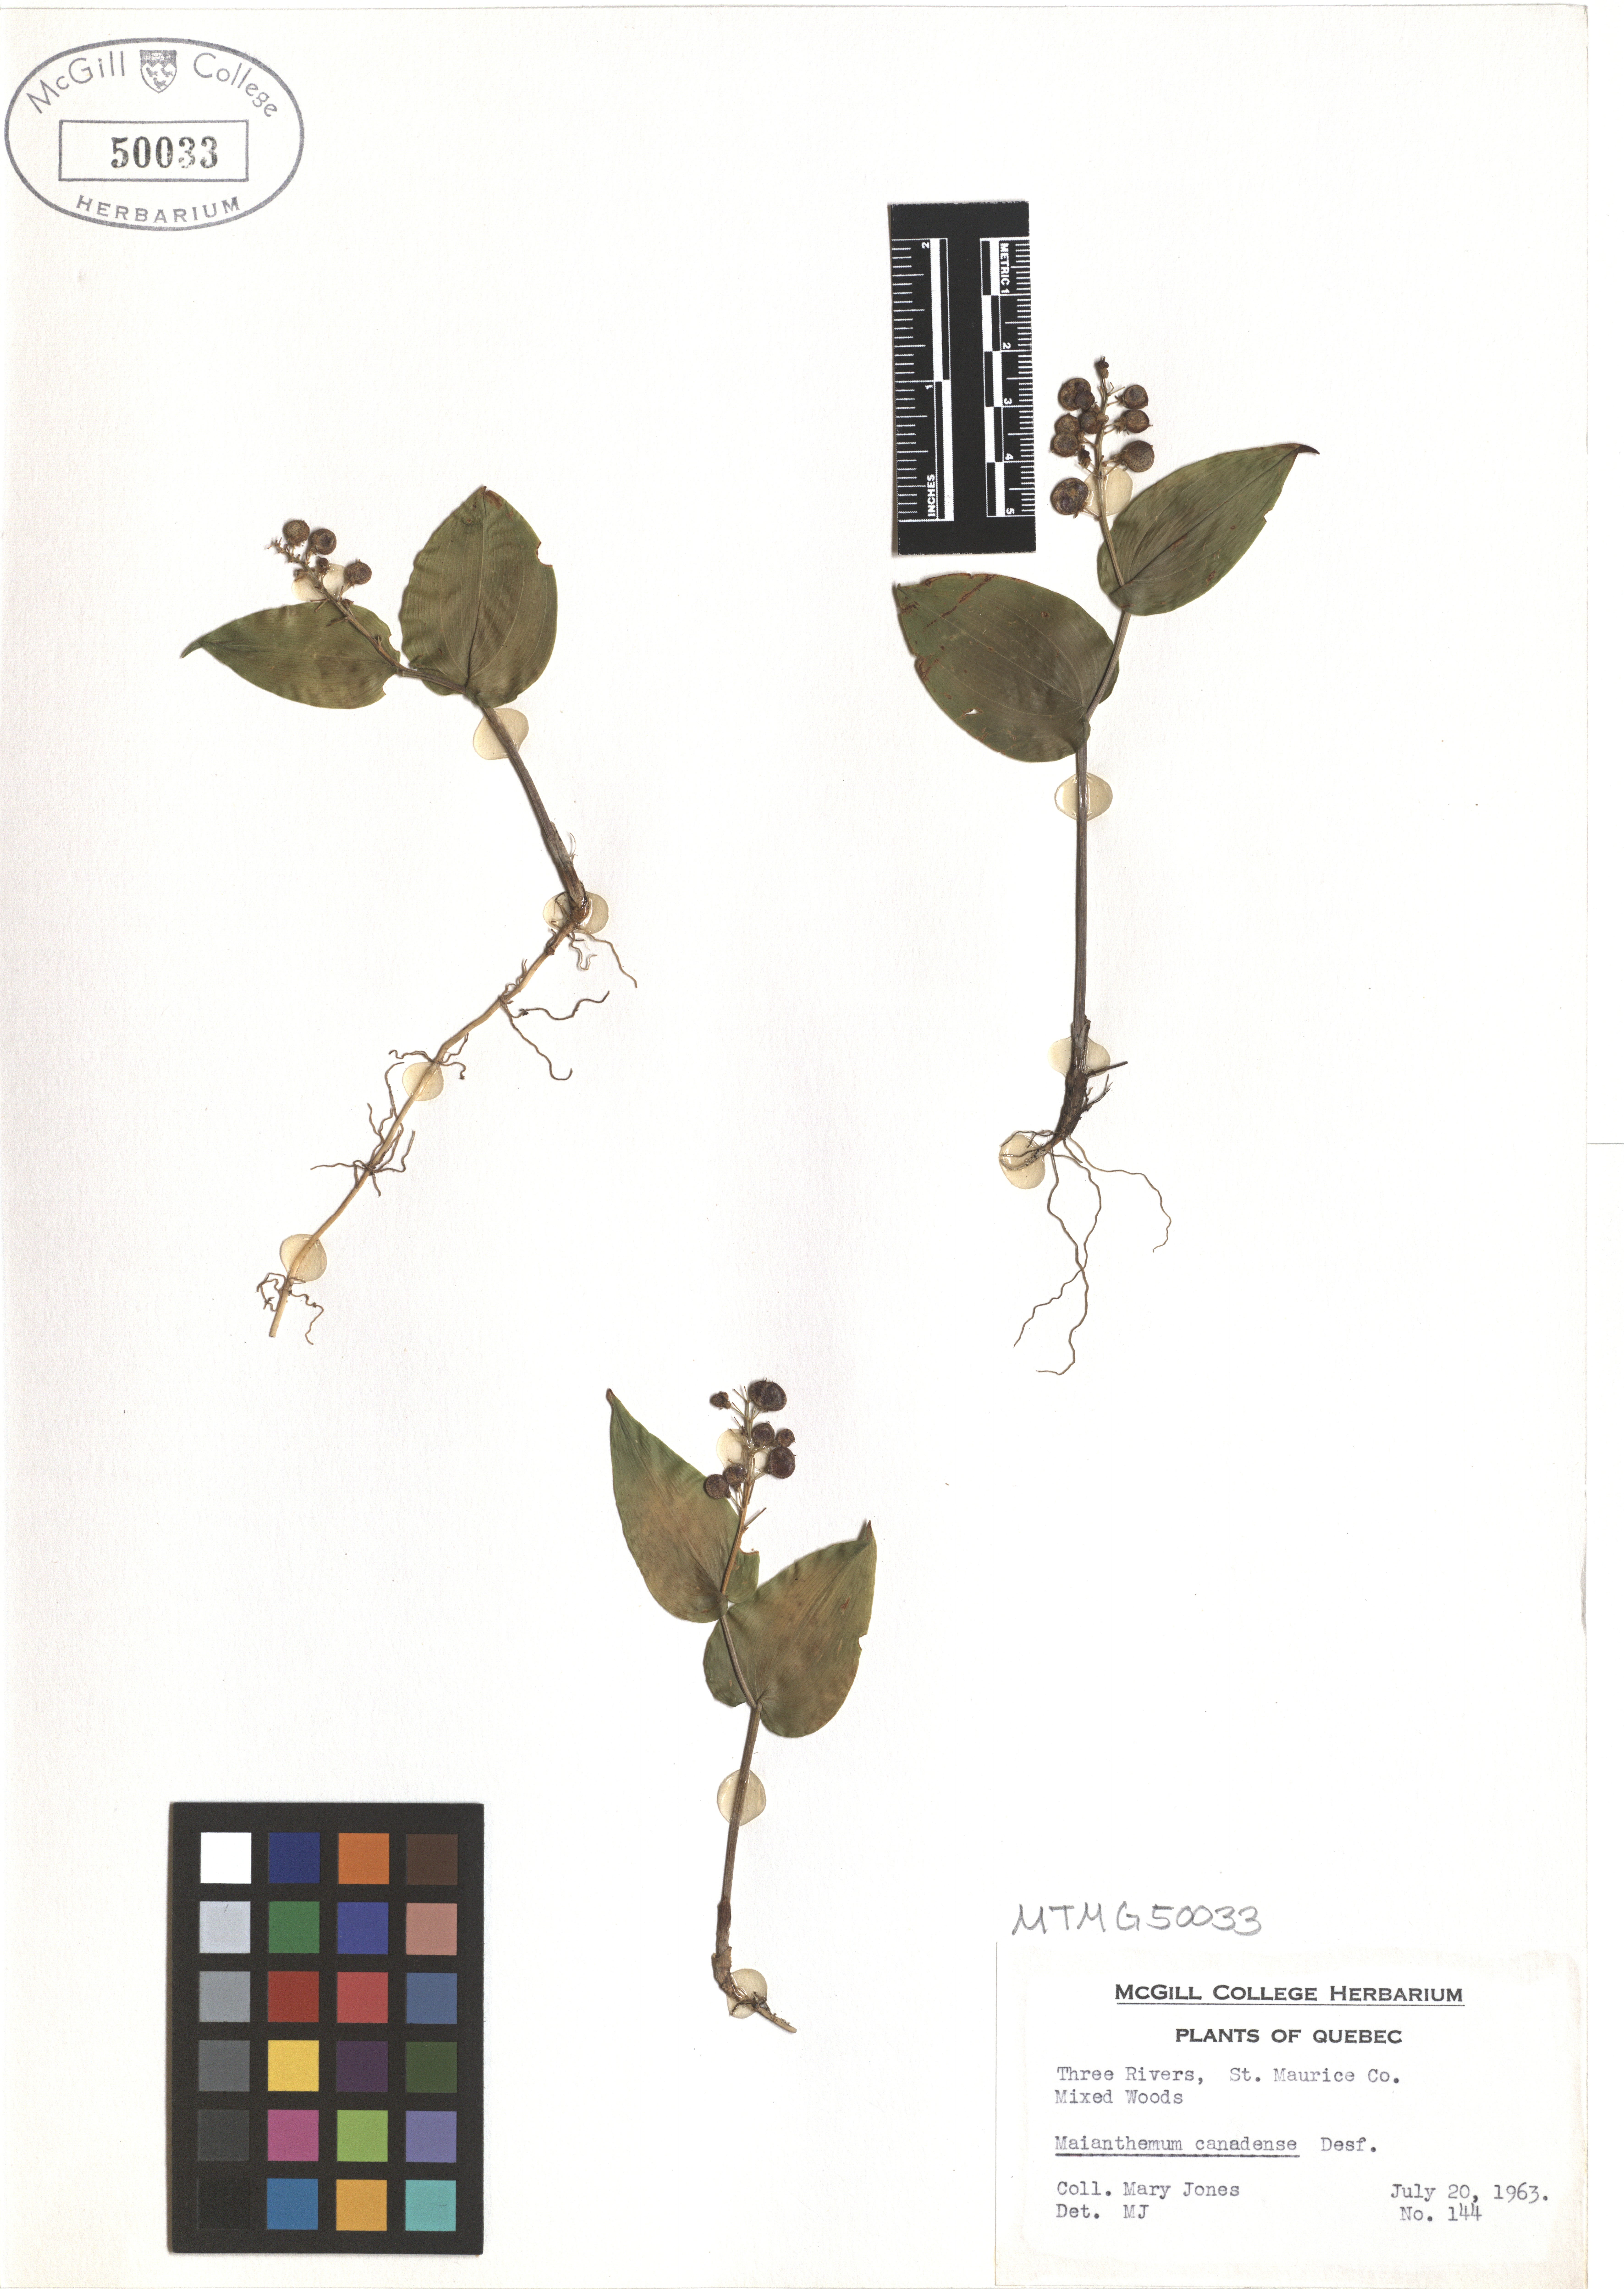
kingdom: Plantae
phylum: Tracheophyta
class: Liliopsida
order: Asparagales
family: Asparagaceae
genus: Maianthemum
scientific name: Maianthemum canadense
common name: False lily-of-the-valley
